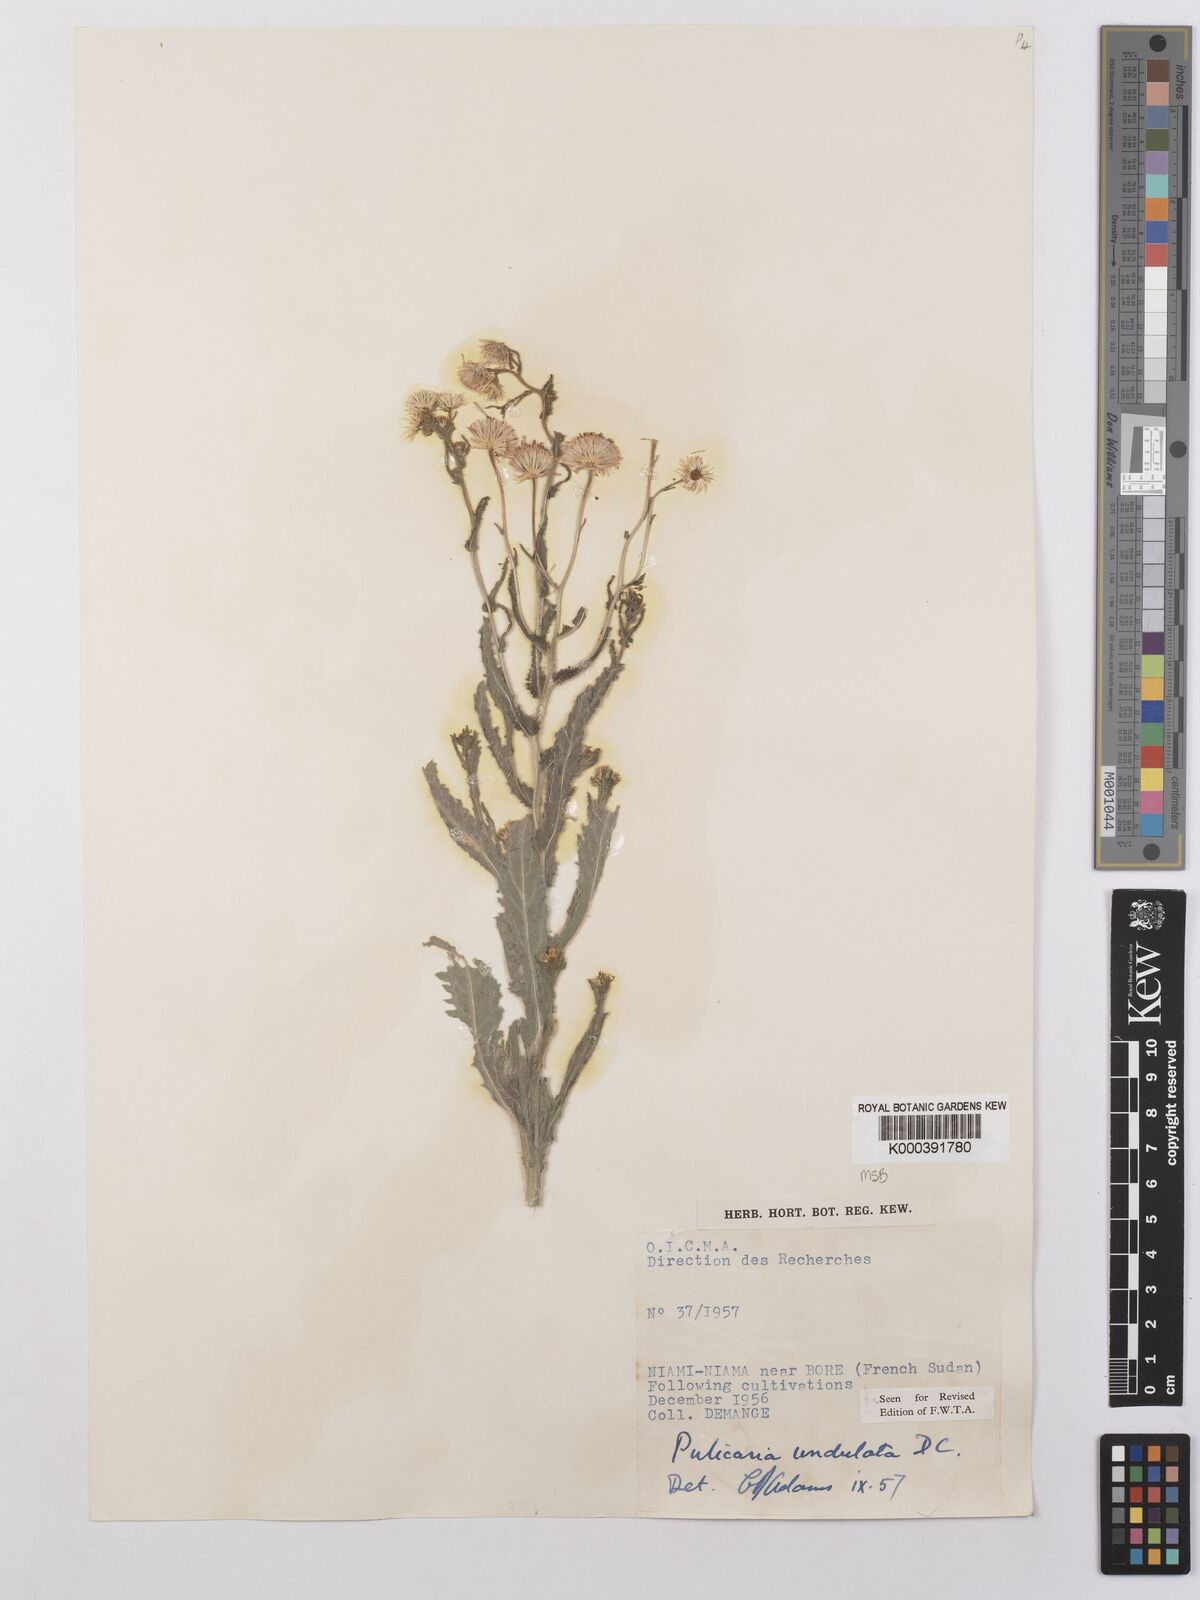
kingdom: Plantae
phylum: Tracheophyta
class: Magnoliopsida
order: Asterales
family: Asteraceae
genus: Pulicaria
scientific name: Pulicaria undulata
